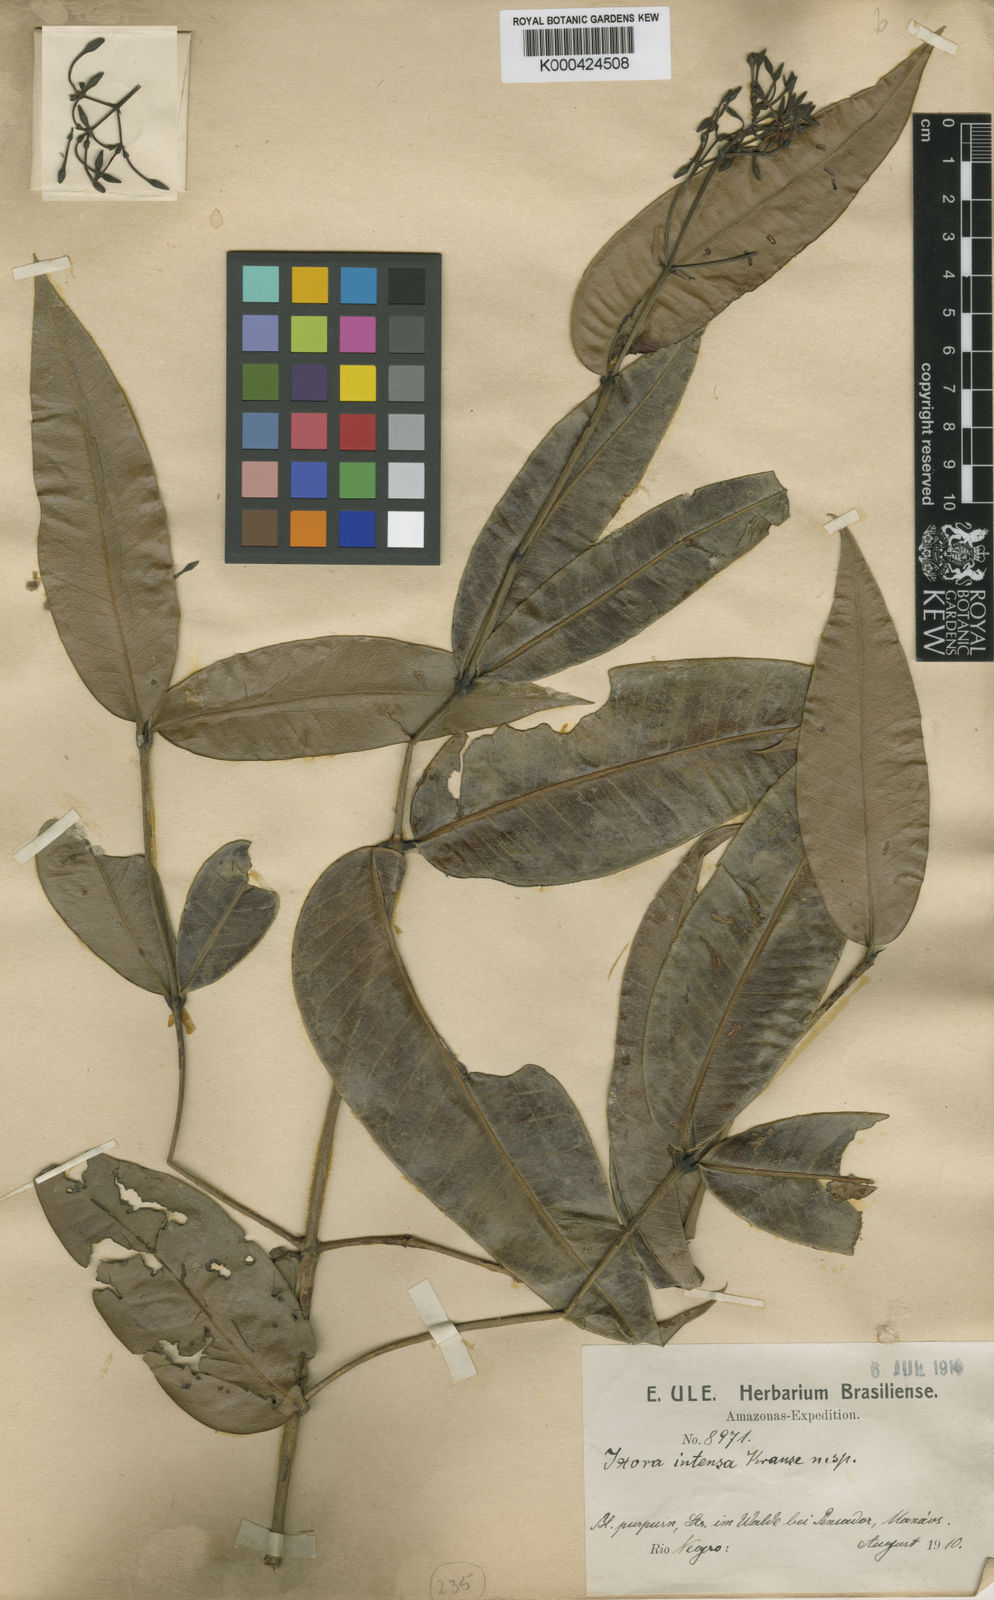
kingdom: Plantae
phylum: Tracheophyta
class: Magnoliopsida
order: Gentianales
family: Rubiaceae
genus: Ixora
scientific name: Ixora intensa
